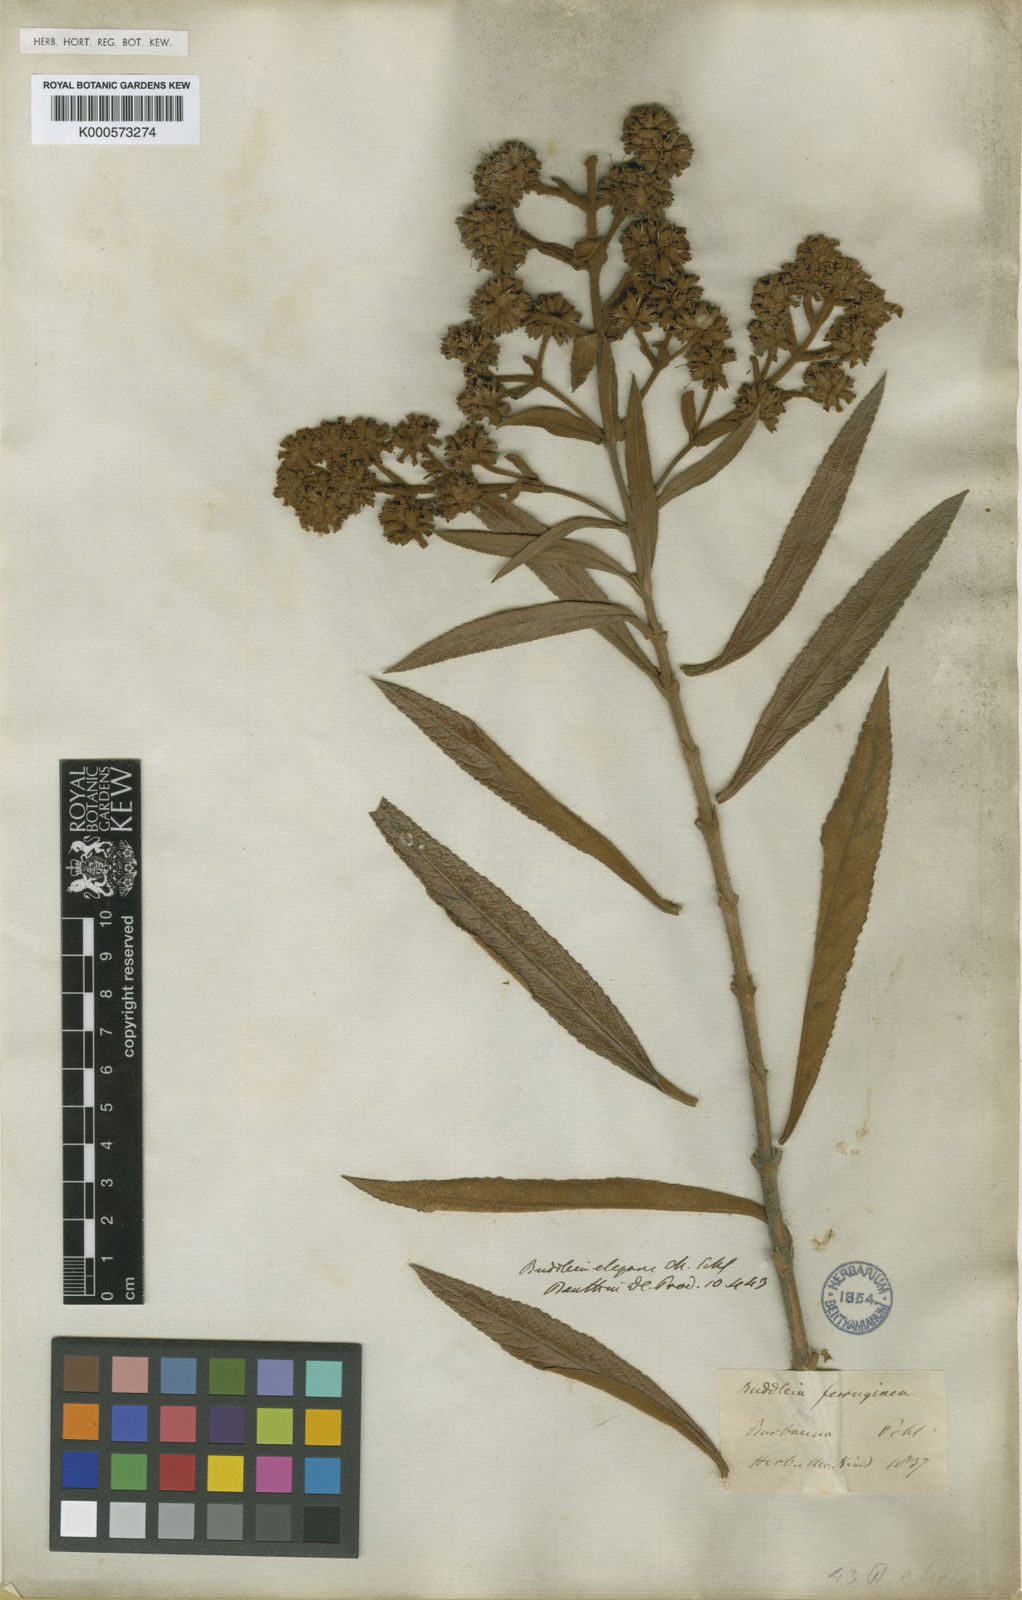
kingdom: Plantae
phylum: Tracheophyta
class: Magnoliopsida
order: Lamiales
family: Scrophulariaceae
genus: Buddleja
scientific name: Buddleja elegans
